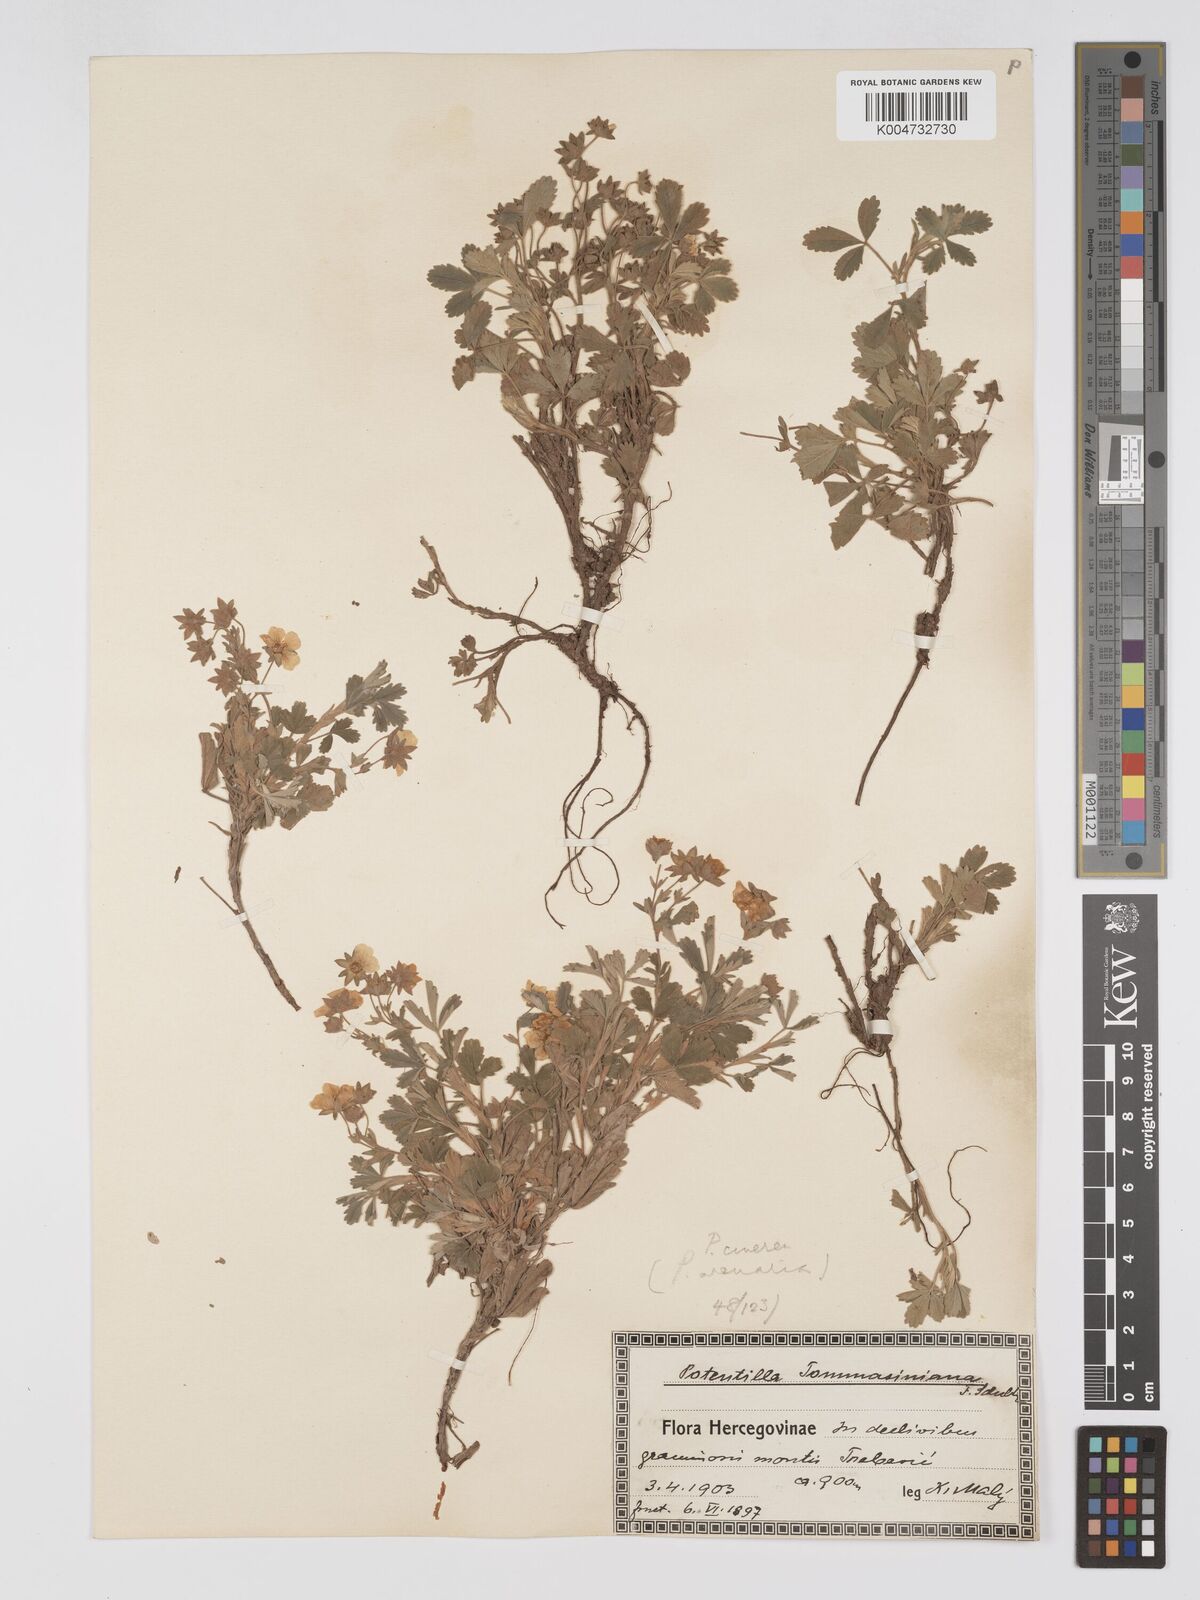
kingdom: Plantae
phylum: Tracheophyta
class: Magnoliopsida
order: Rosales
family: Rosaceae
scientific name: Rosaceae
